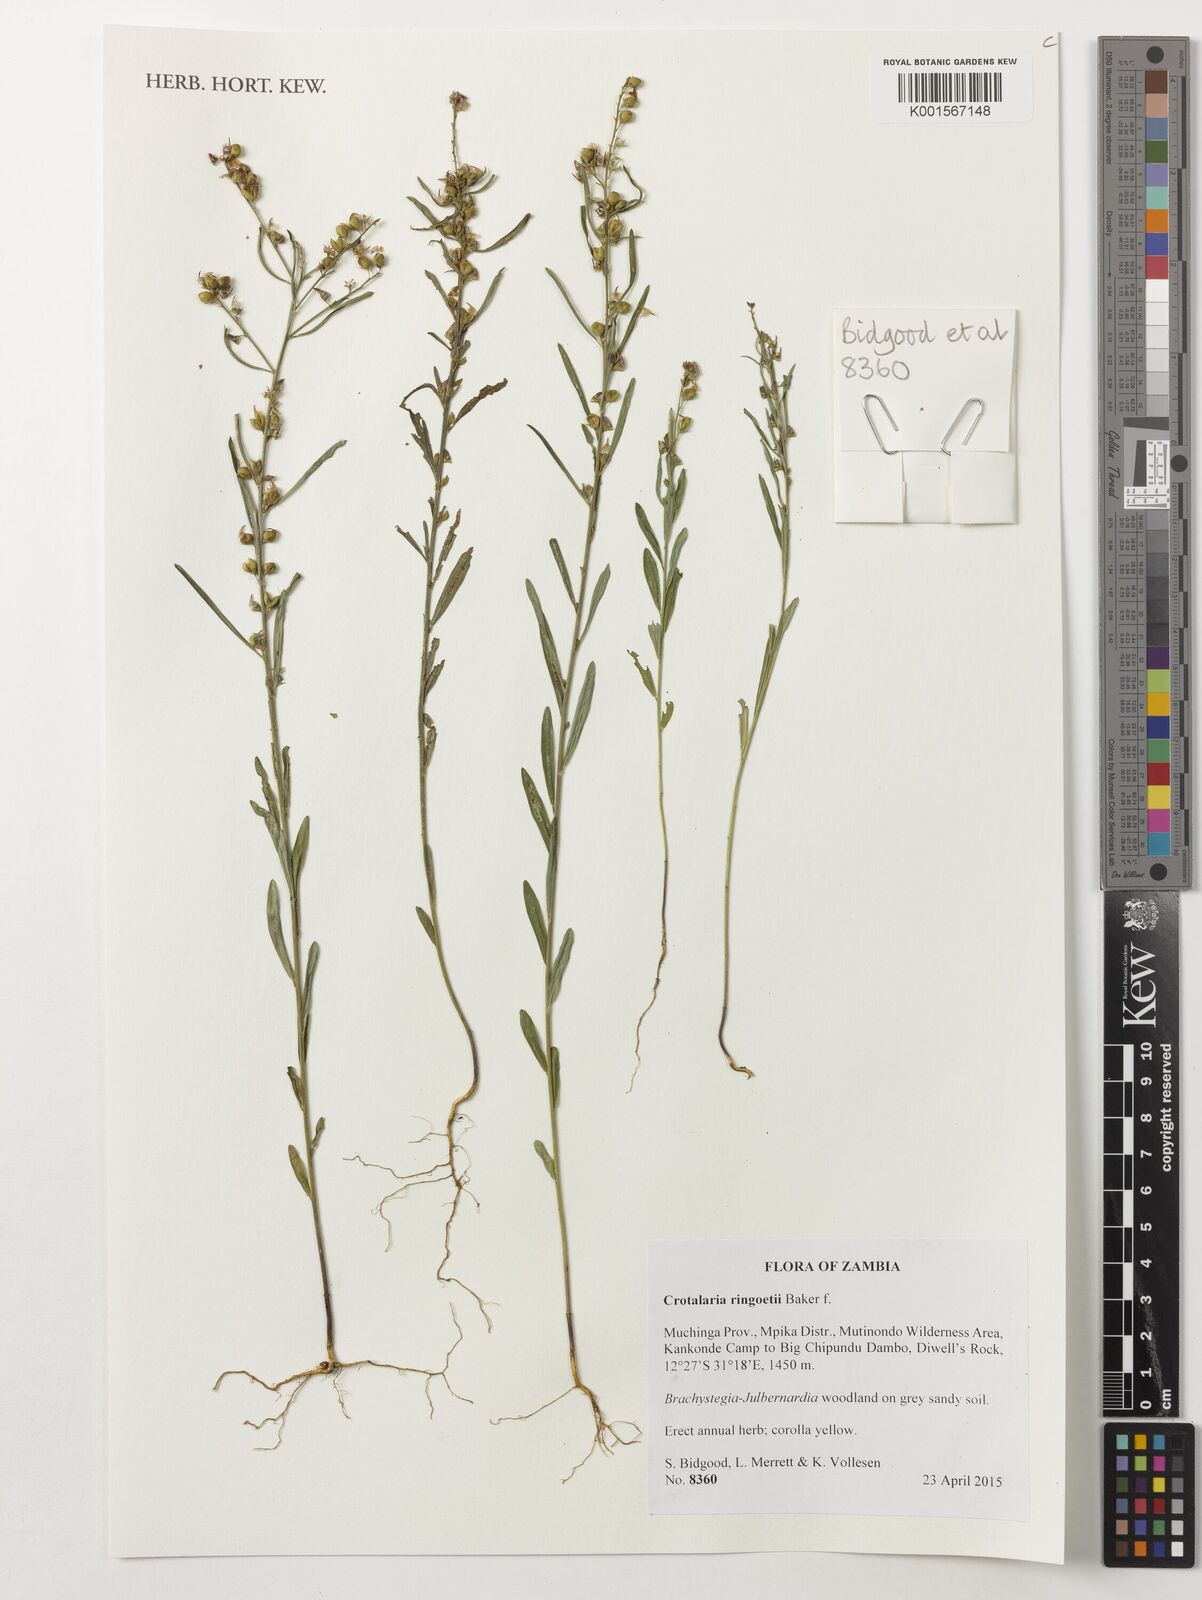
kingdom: Plantae
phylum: Tracheophyta
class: Magnoliopsida
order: Fabales
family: Fabaceae
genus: Crotalaria
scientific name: Crotalaria ringoetii
